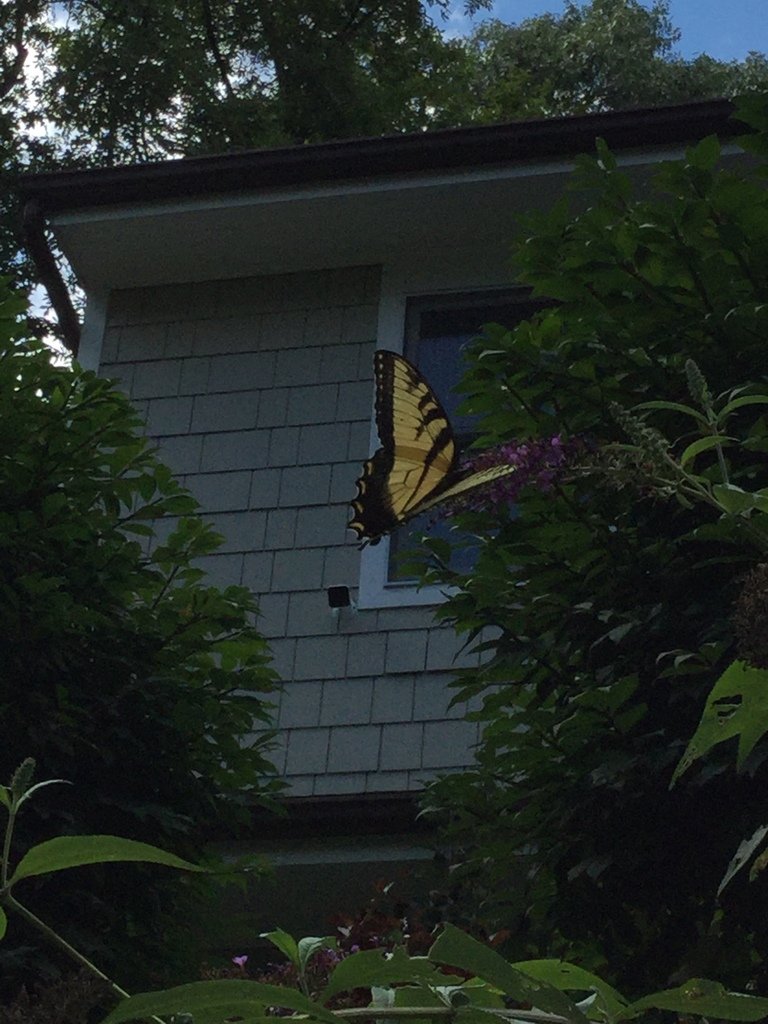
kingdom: Animalia
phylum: Arthropoda
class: Insecta
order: Lepidoptera
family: Papilionidae
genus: Pterourus
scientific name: Pterourus glaucus
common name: Eastern Tiger Swallowtail
